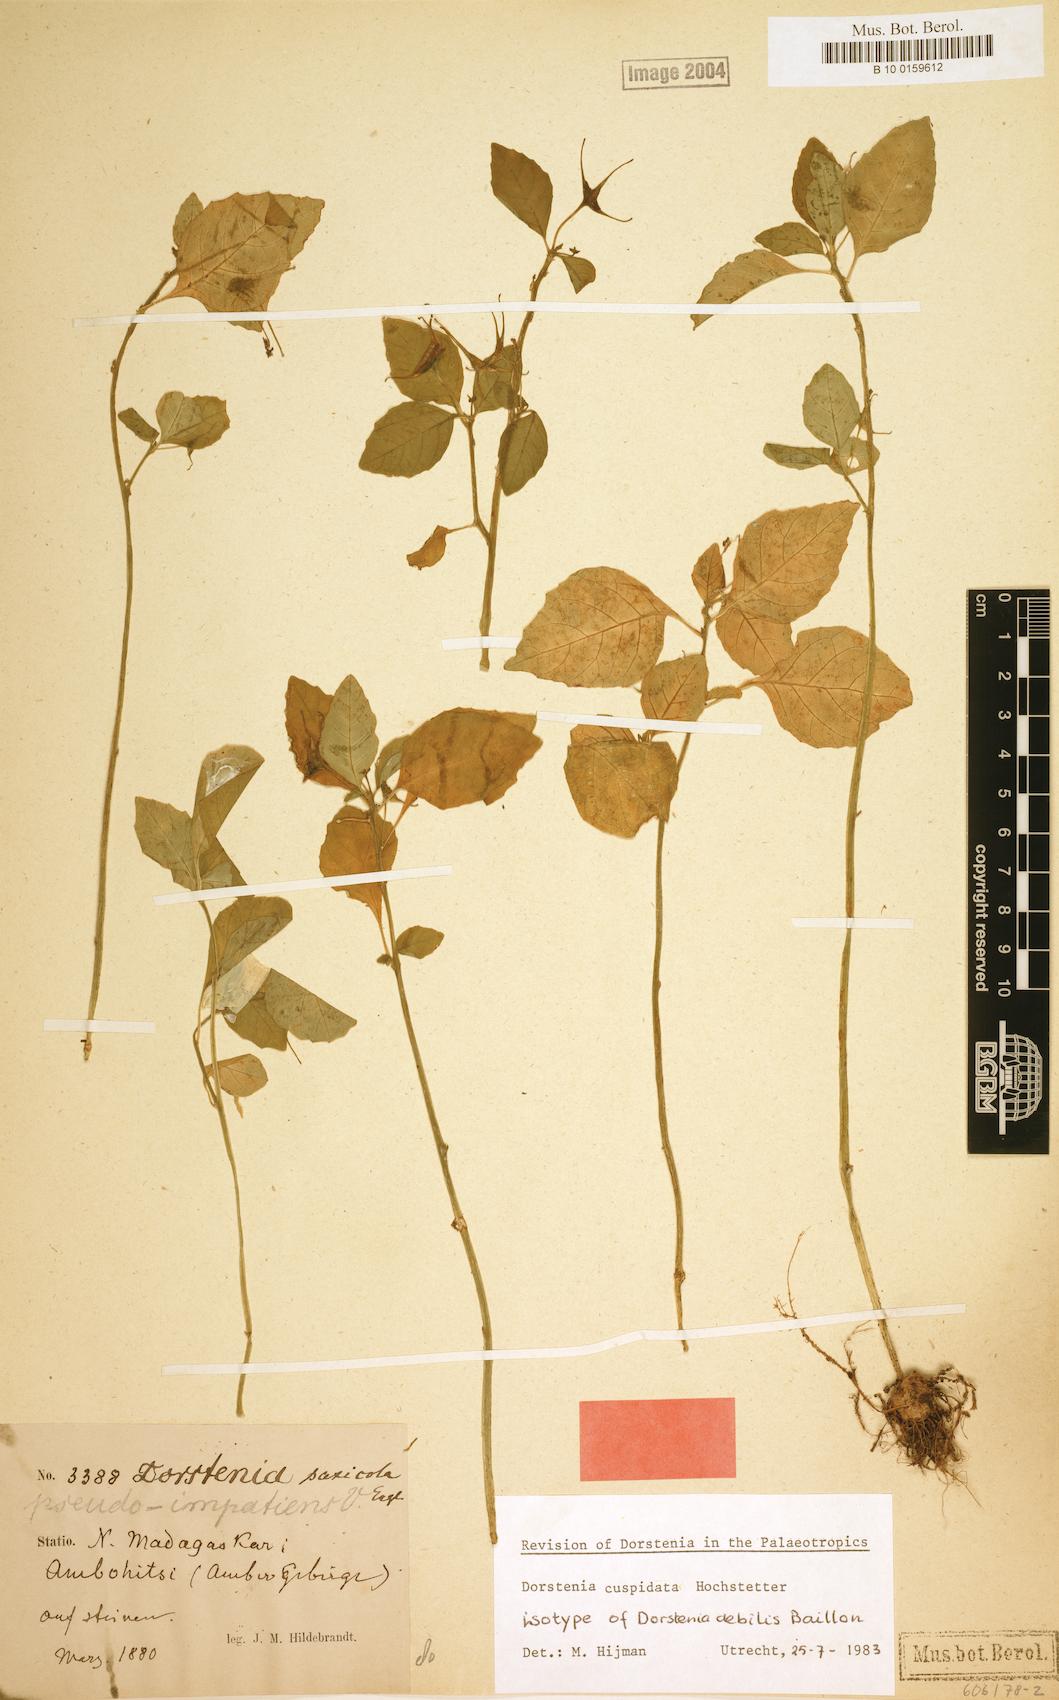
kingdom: Plantae
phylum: Tracheophyta
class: Magnoliopsida
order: Rosales
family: Moraceae
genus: Dorstenia
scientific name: Dorstenia cuspidata
